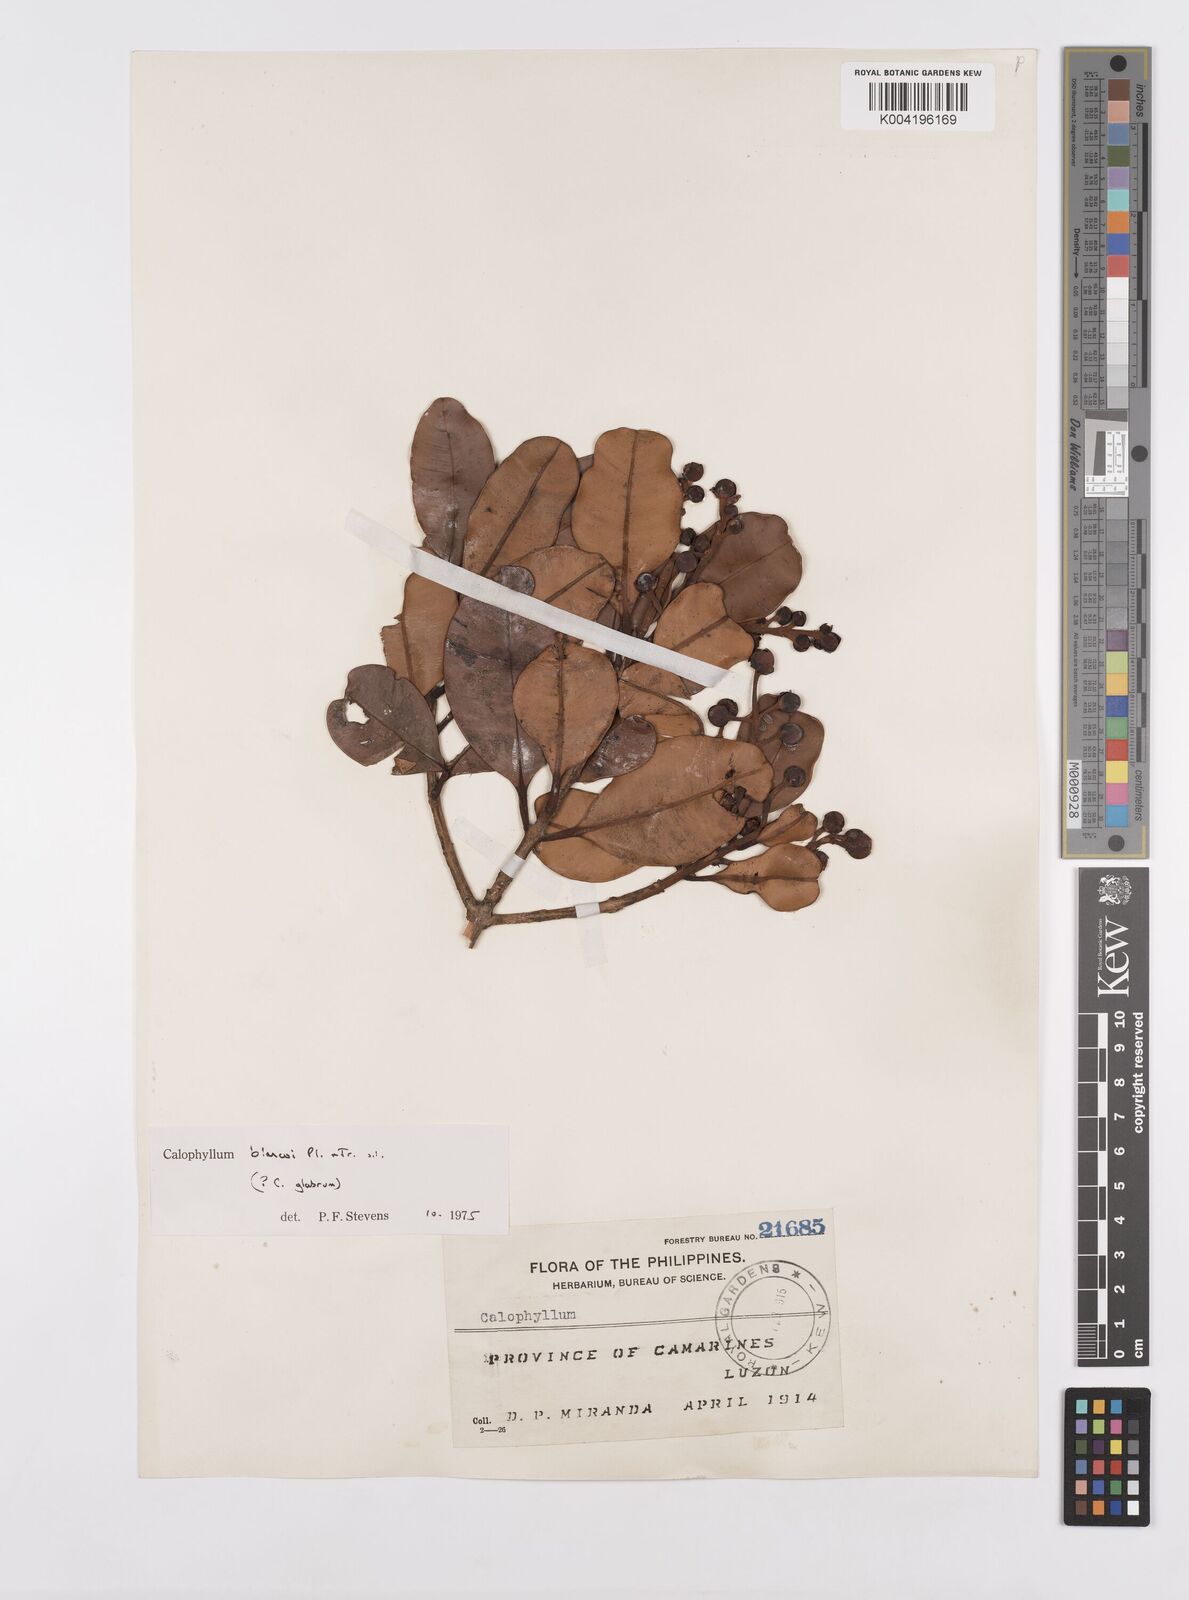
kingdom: Plantae
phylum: Tracheophyta
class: Magnoliopsida
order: Malpighiales
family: Calophyllaceae
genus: Calophyllum
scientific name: Calophyllum blancoi
